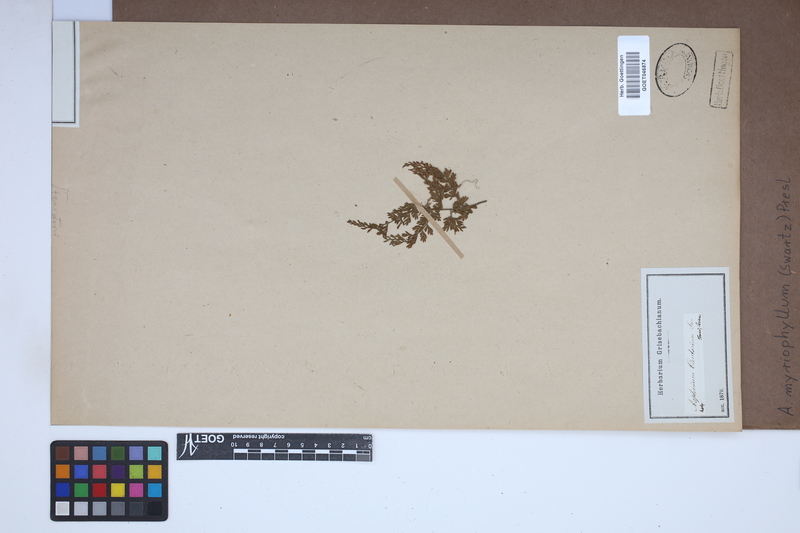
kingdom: Plantae
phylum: Tracheophyta
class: Polypodiopsida
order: Polypodiales
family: Aspleniaceae
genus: Asplenium
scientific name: Asplenium myriophyllum
